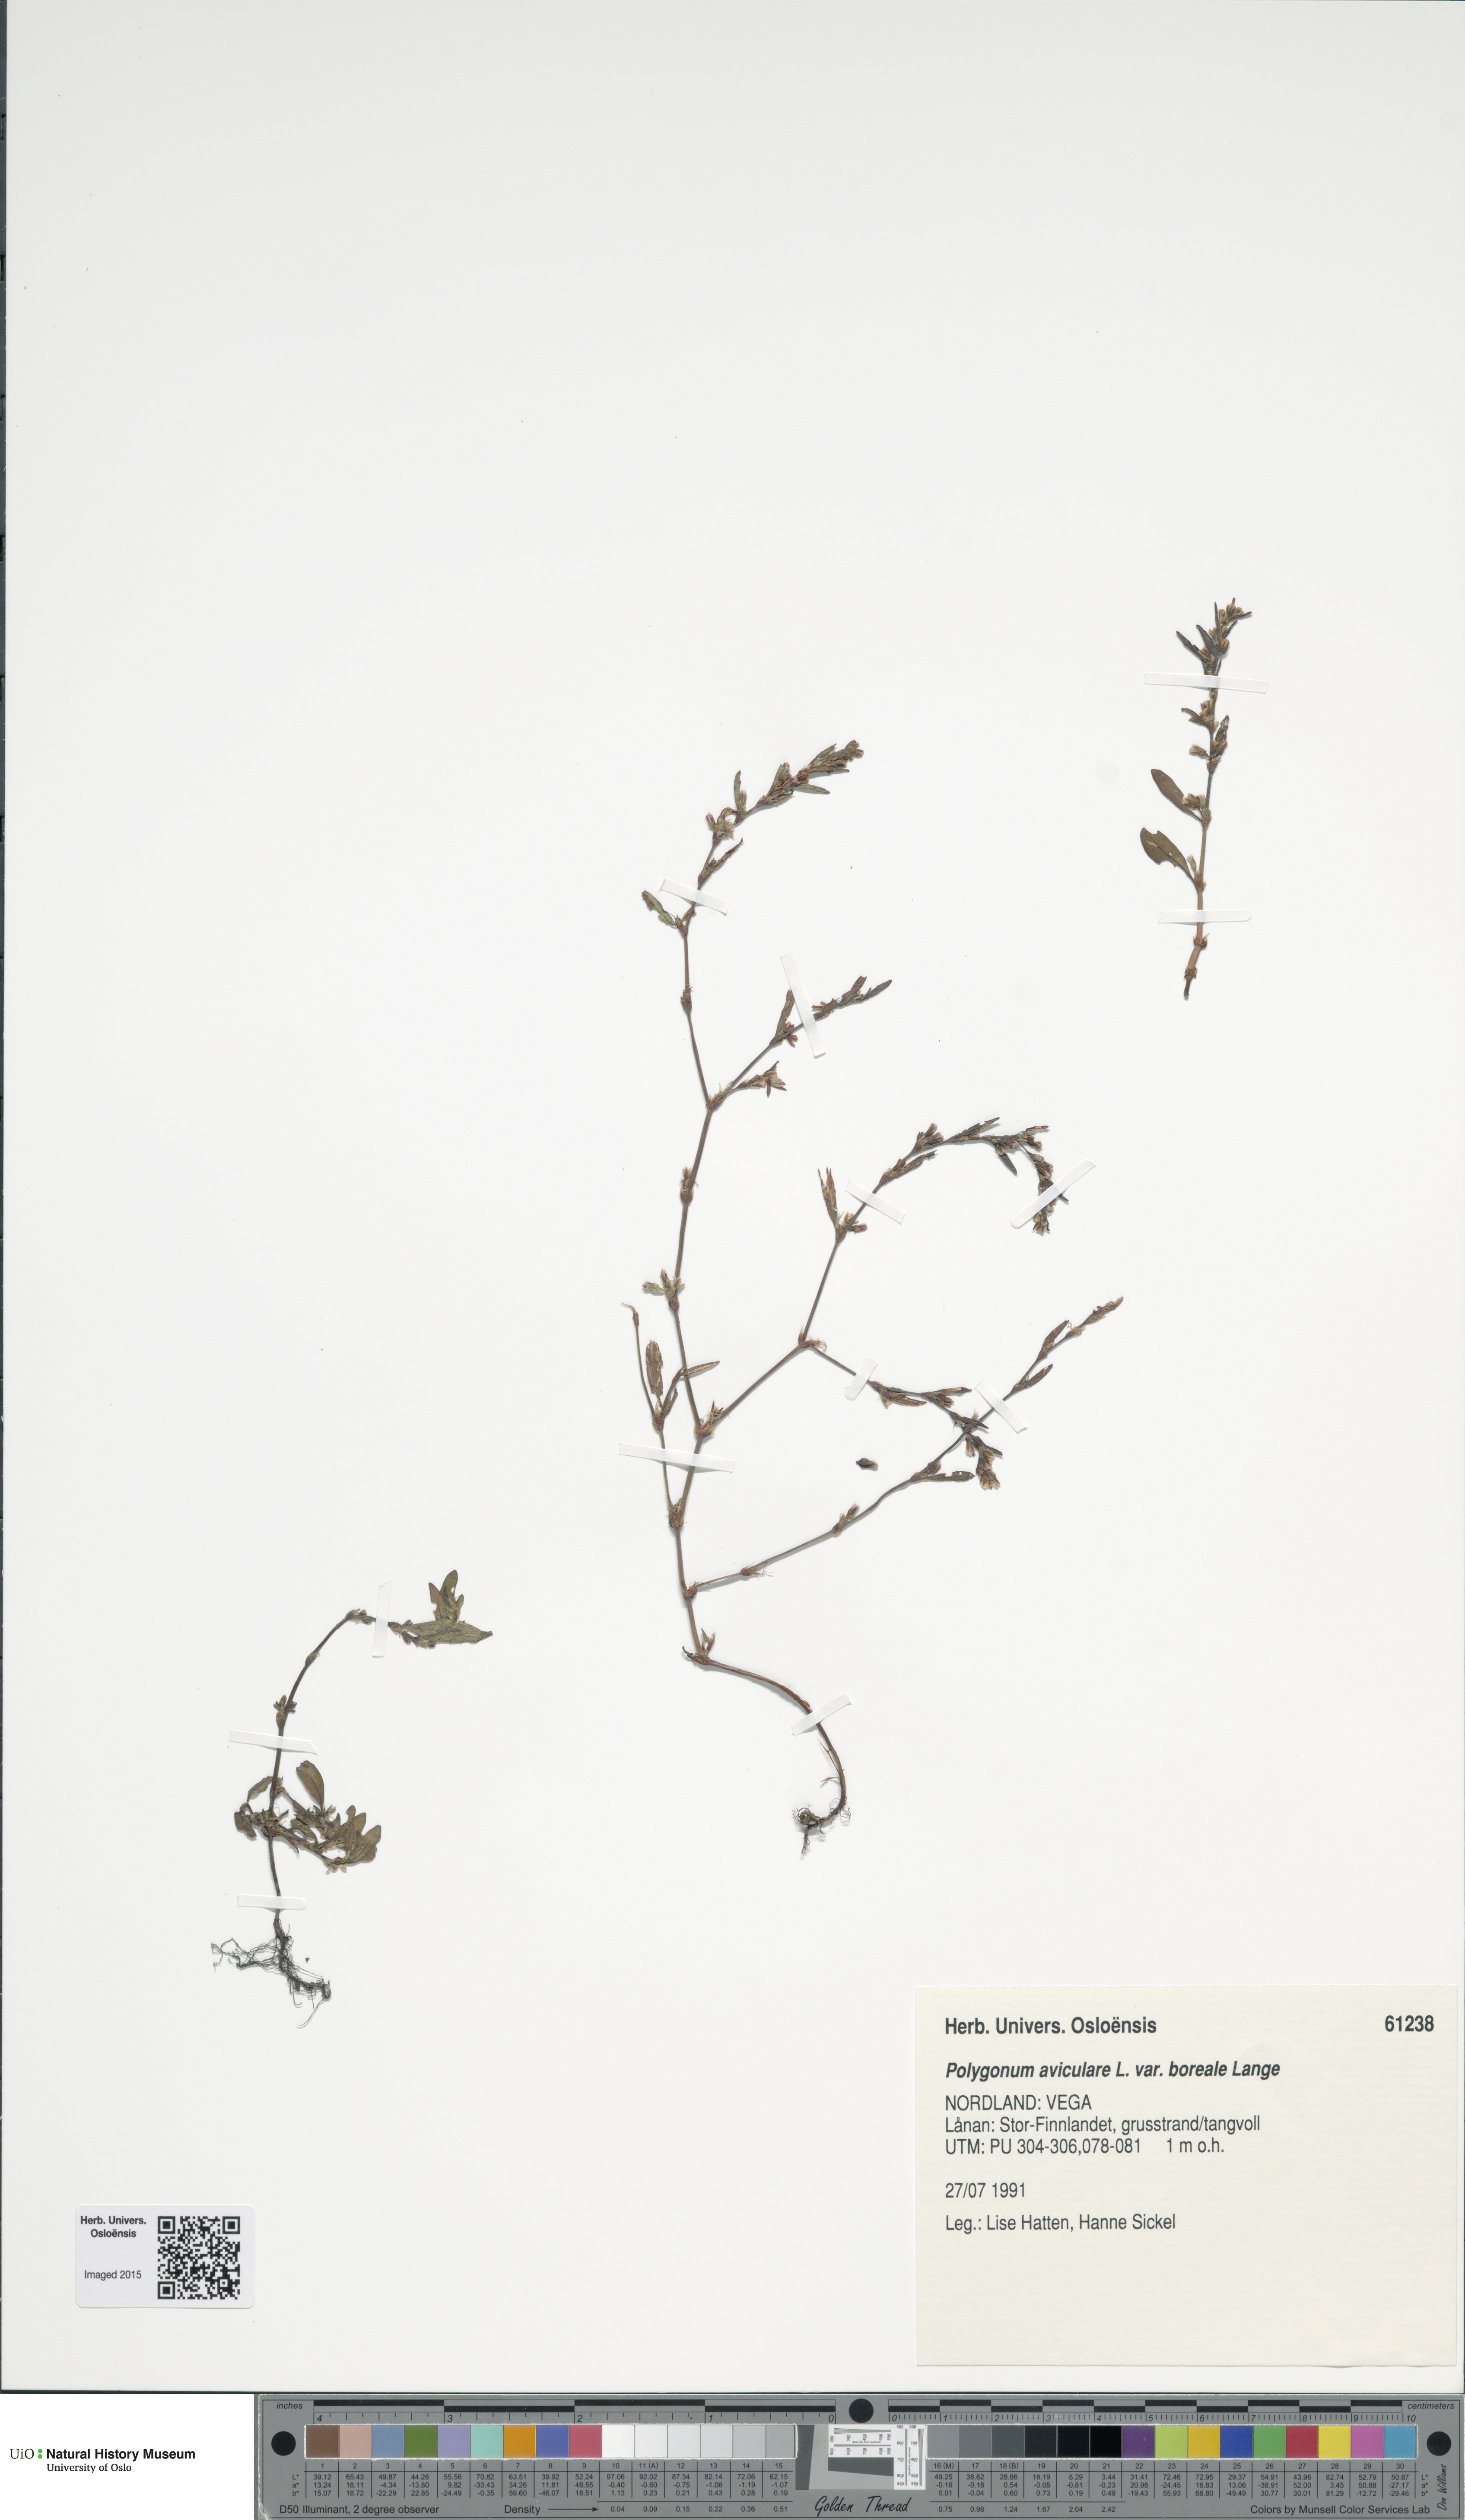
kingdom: Plantae
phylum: Tracheophyta
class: Magnoliopsida
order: Caryophyllales
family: Polygonaceae
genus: Polygonum
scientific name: Polygonum boreale
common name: Northern knotgrass
